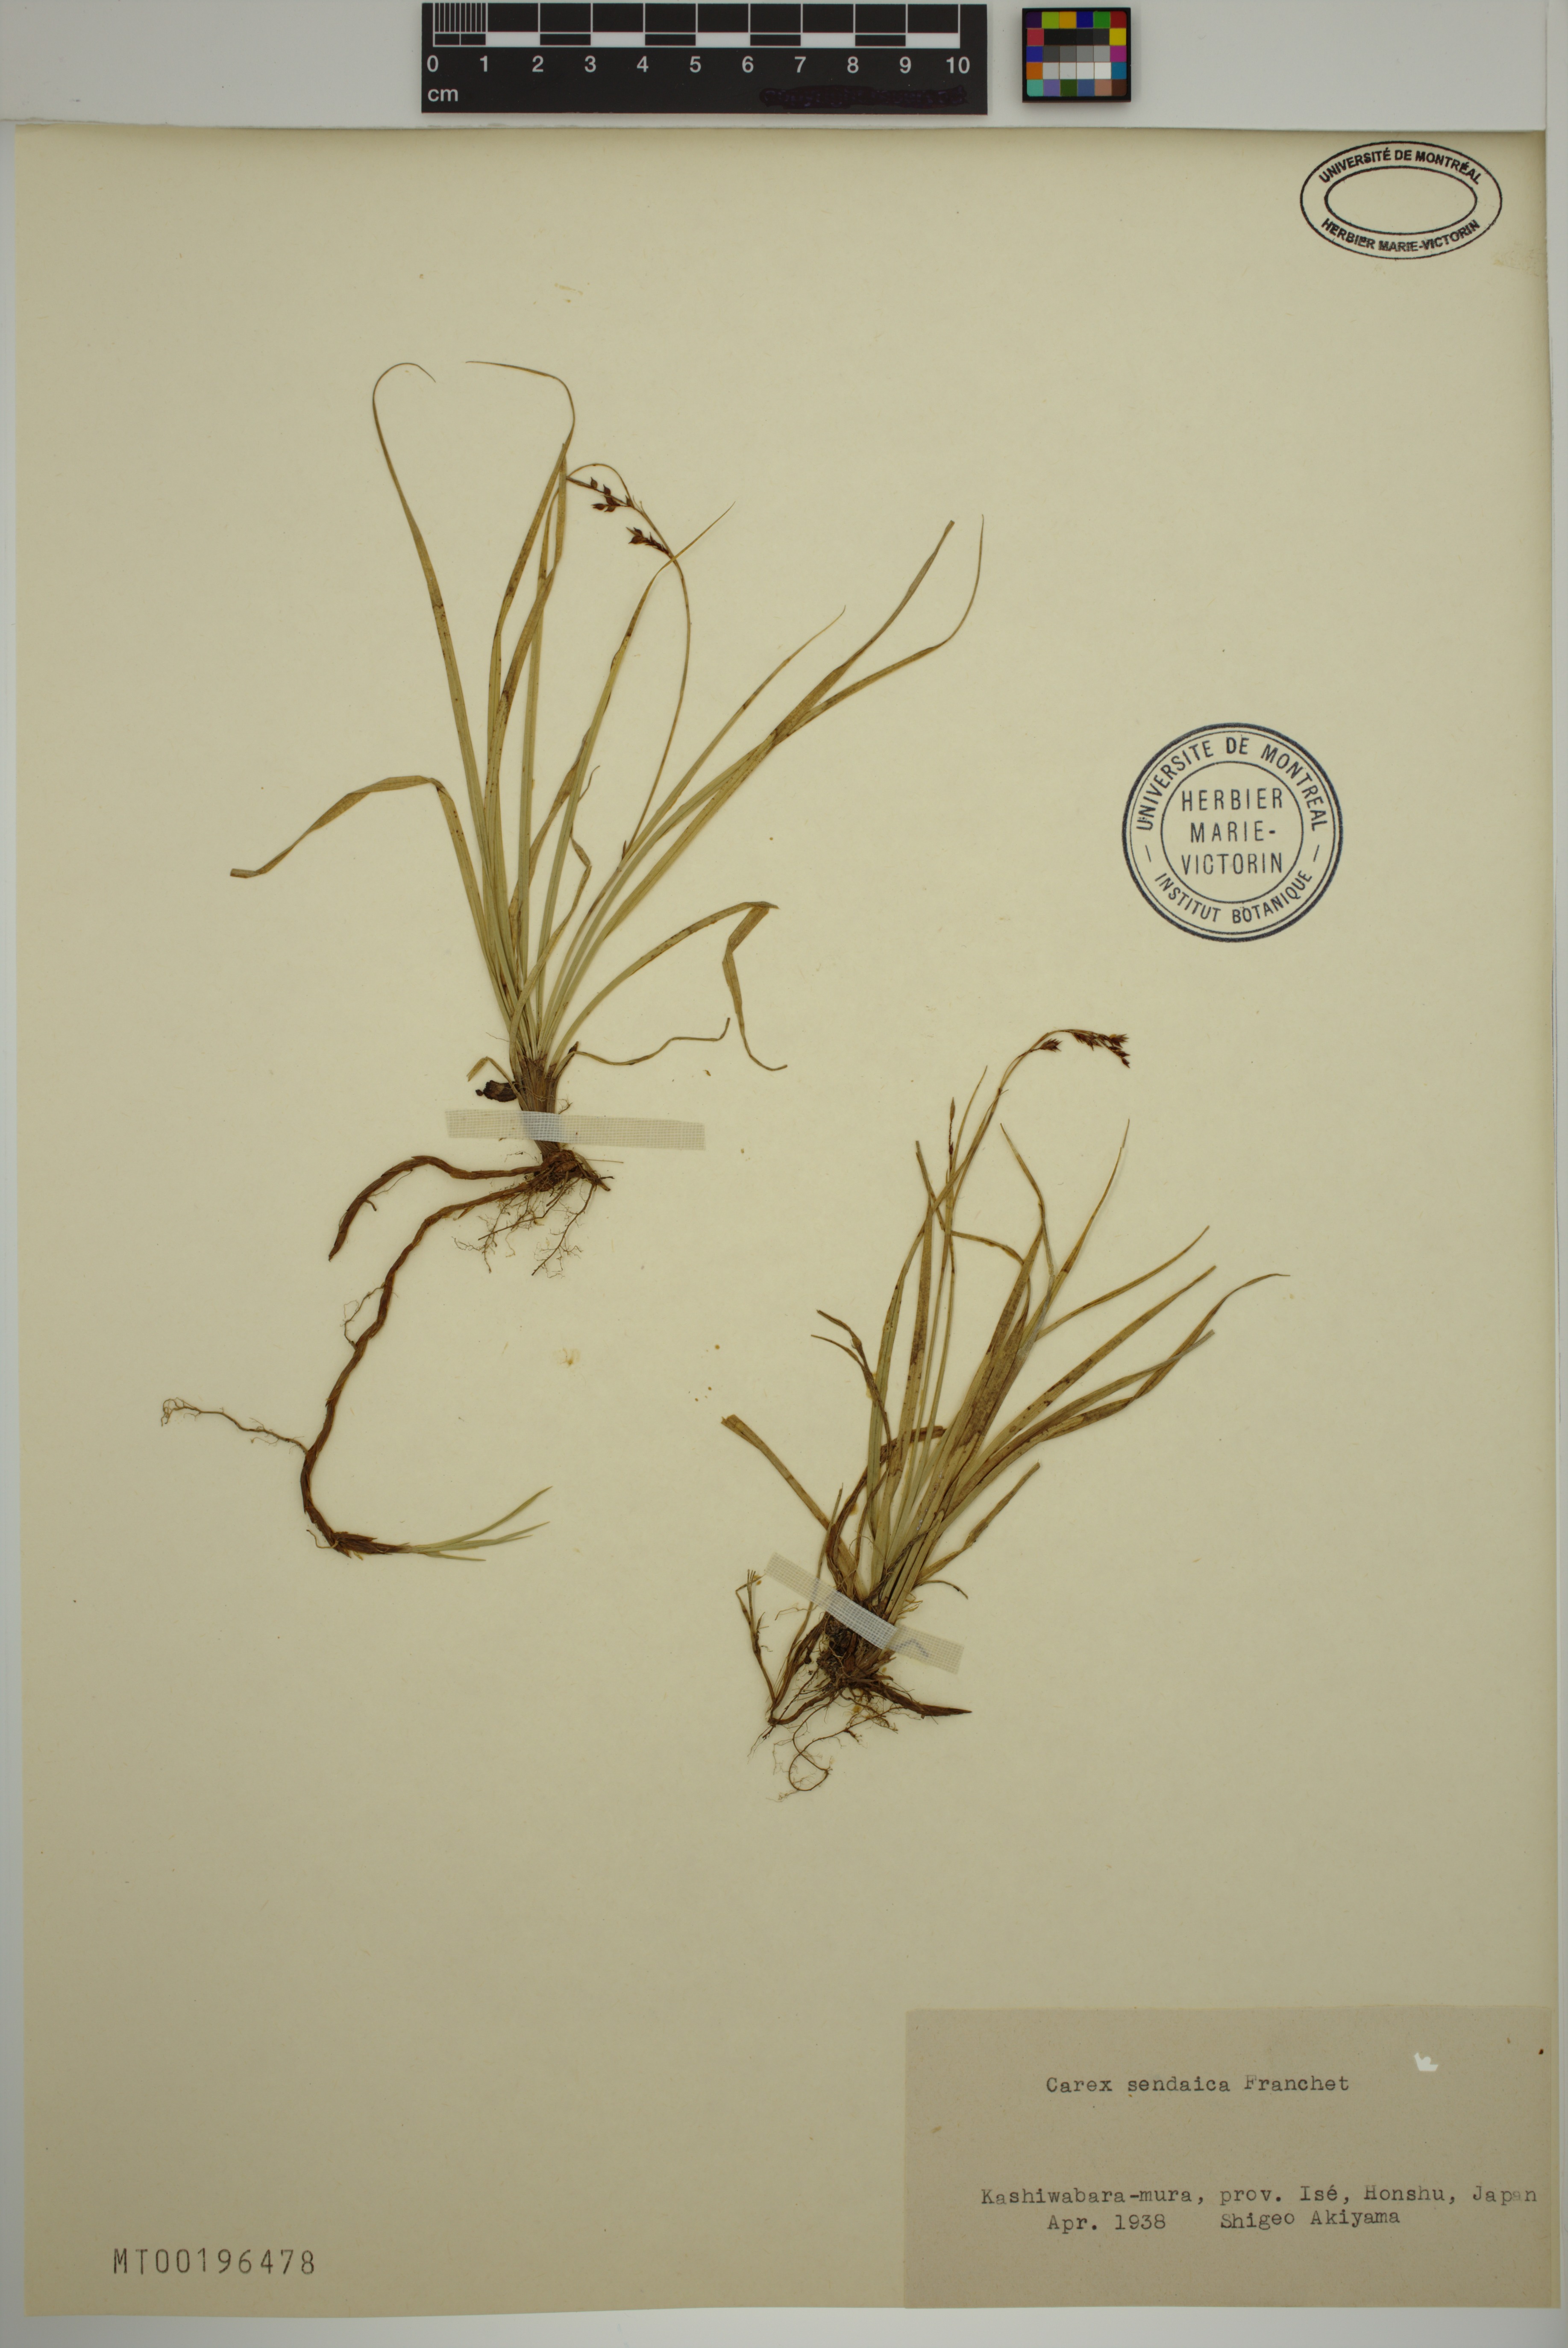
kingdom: Plantae
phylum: Tracheophyta
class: Liliopsida
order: Poales
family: Cyperaceae
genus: Carex
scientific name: Carex sendaica
